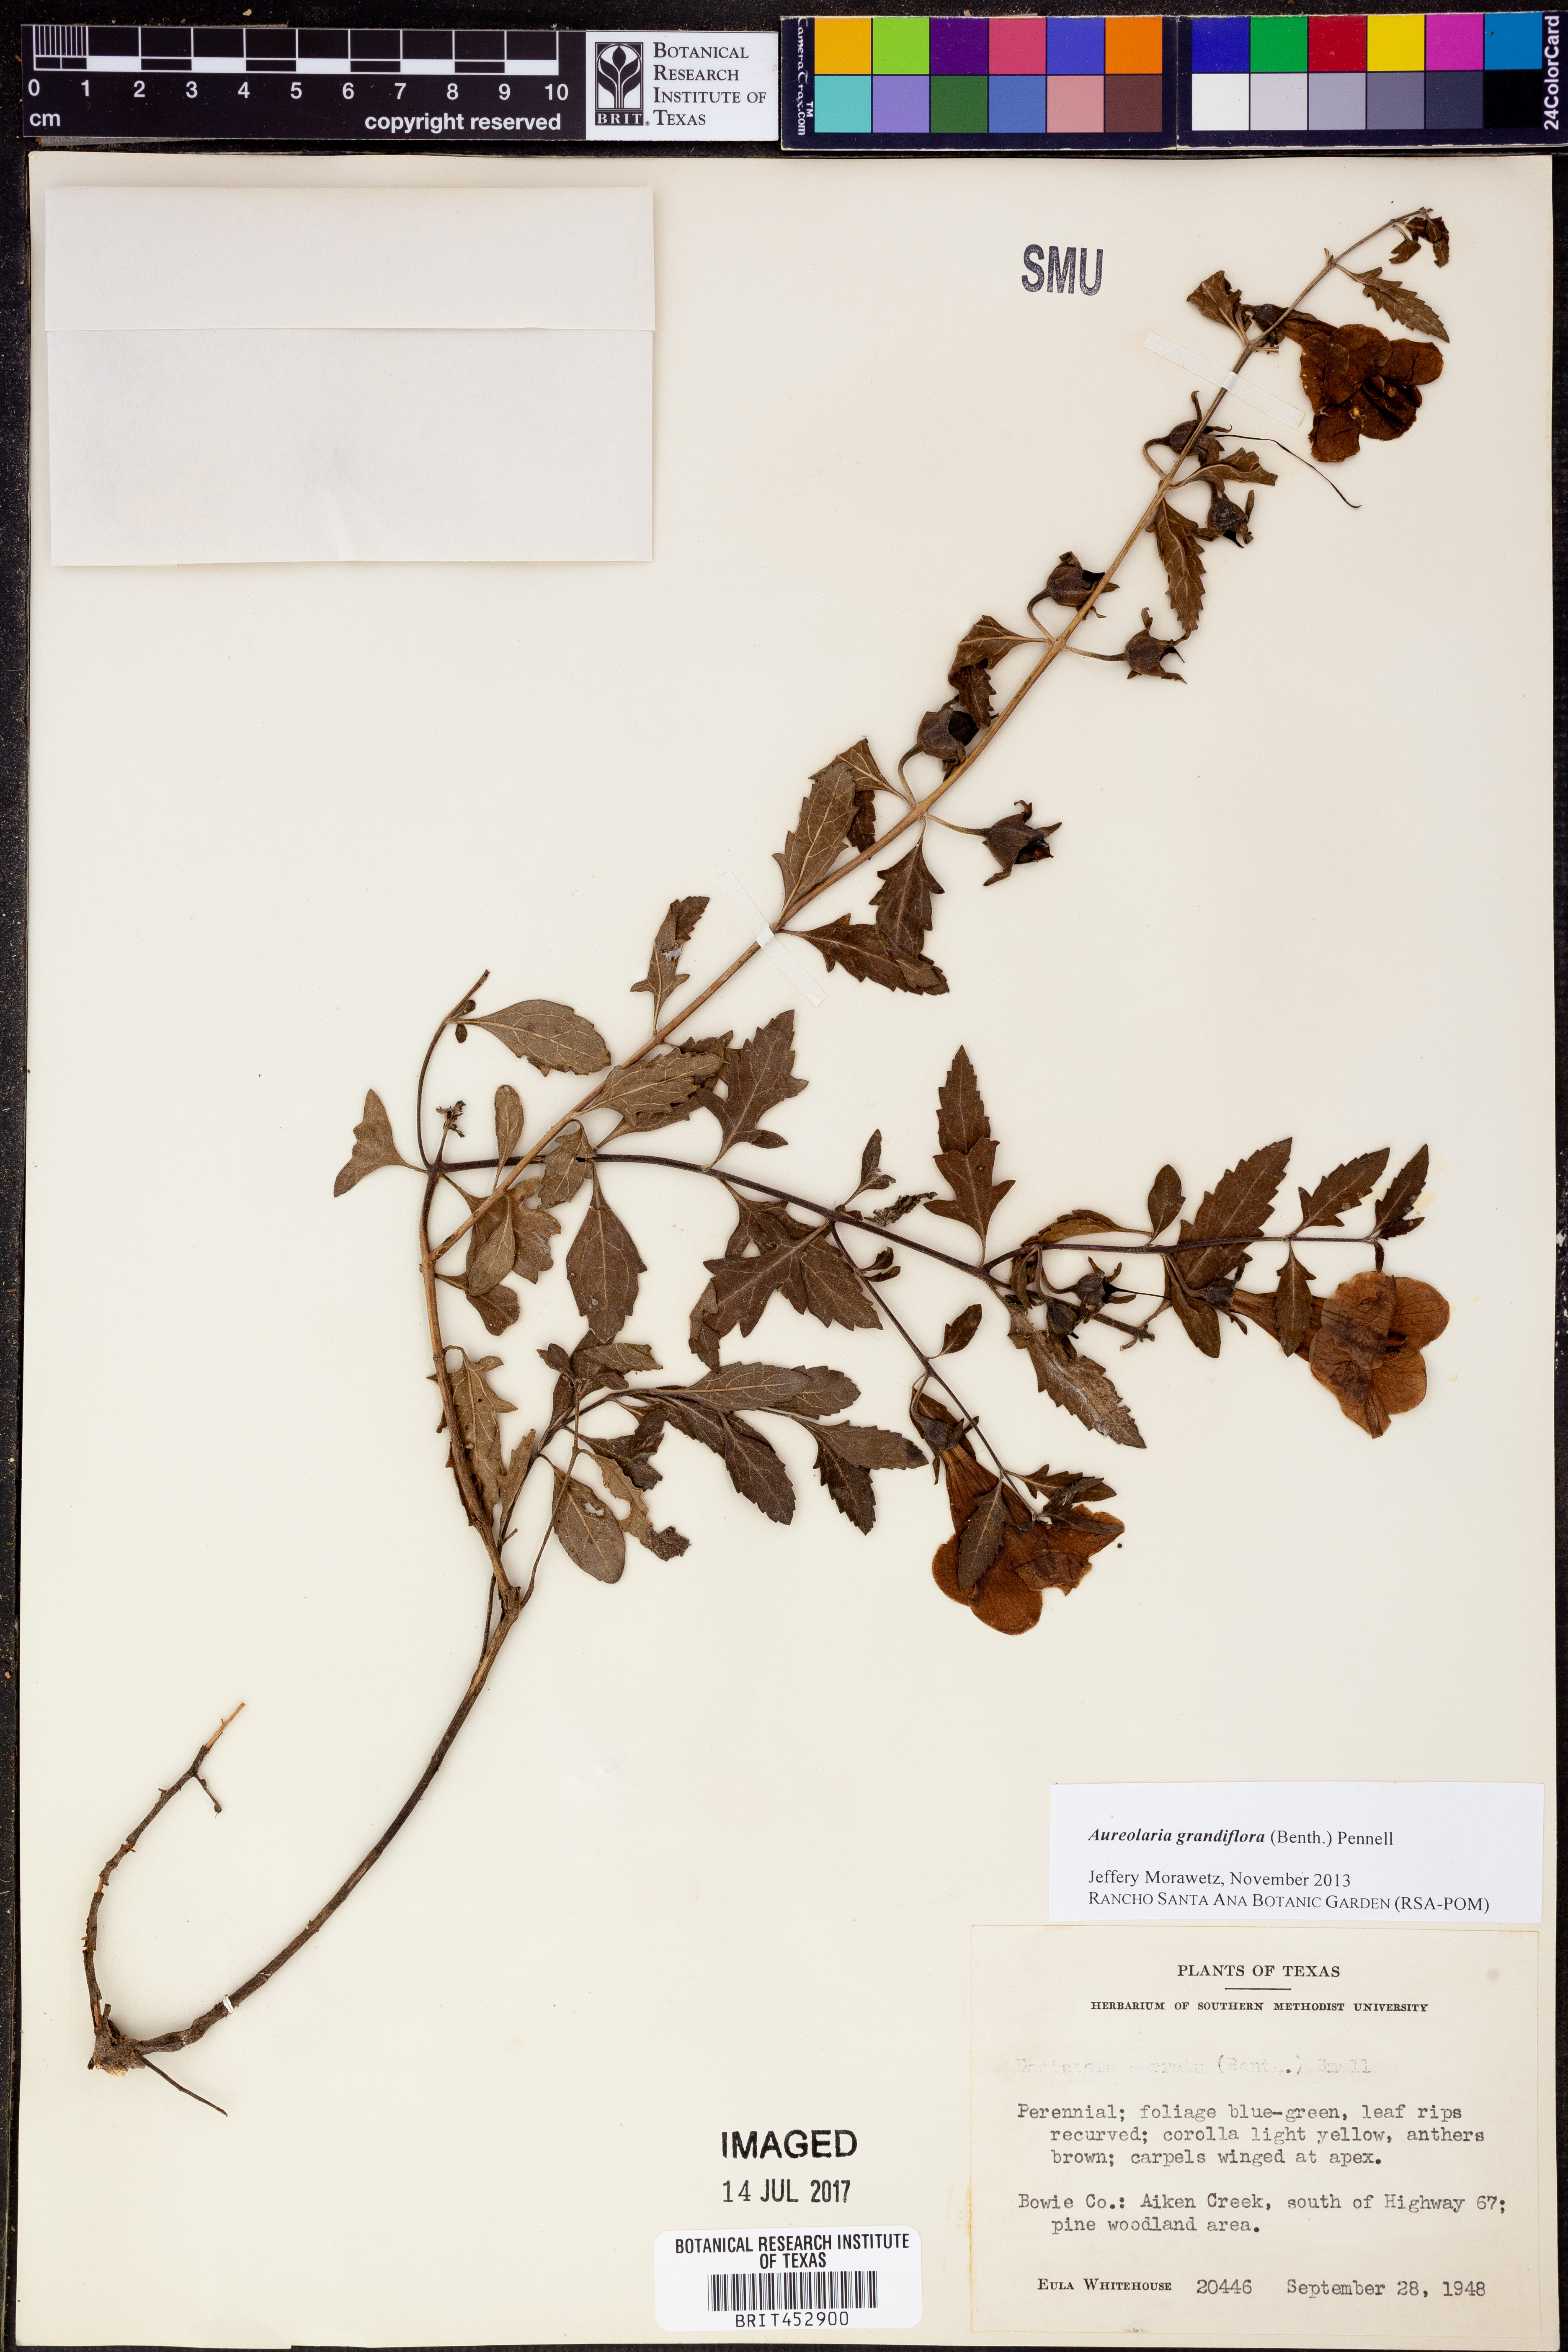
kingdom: Plantae
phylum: Tracheophyta
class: Magnoliopsida
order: Lamiales
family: Orobanchaceae
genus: Aureolaria
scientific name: Aureolaria grandiflora
